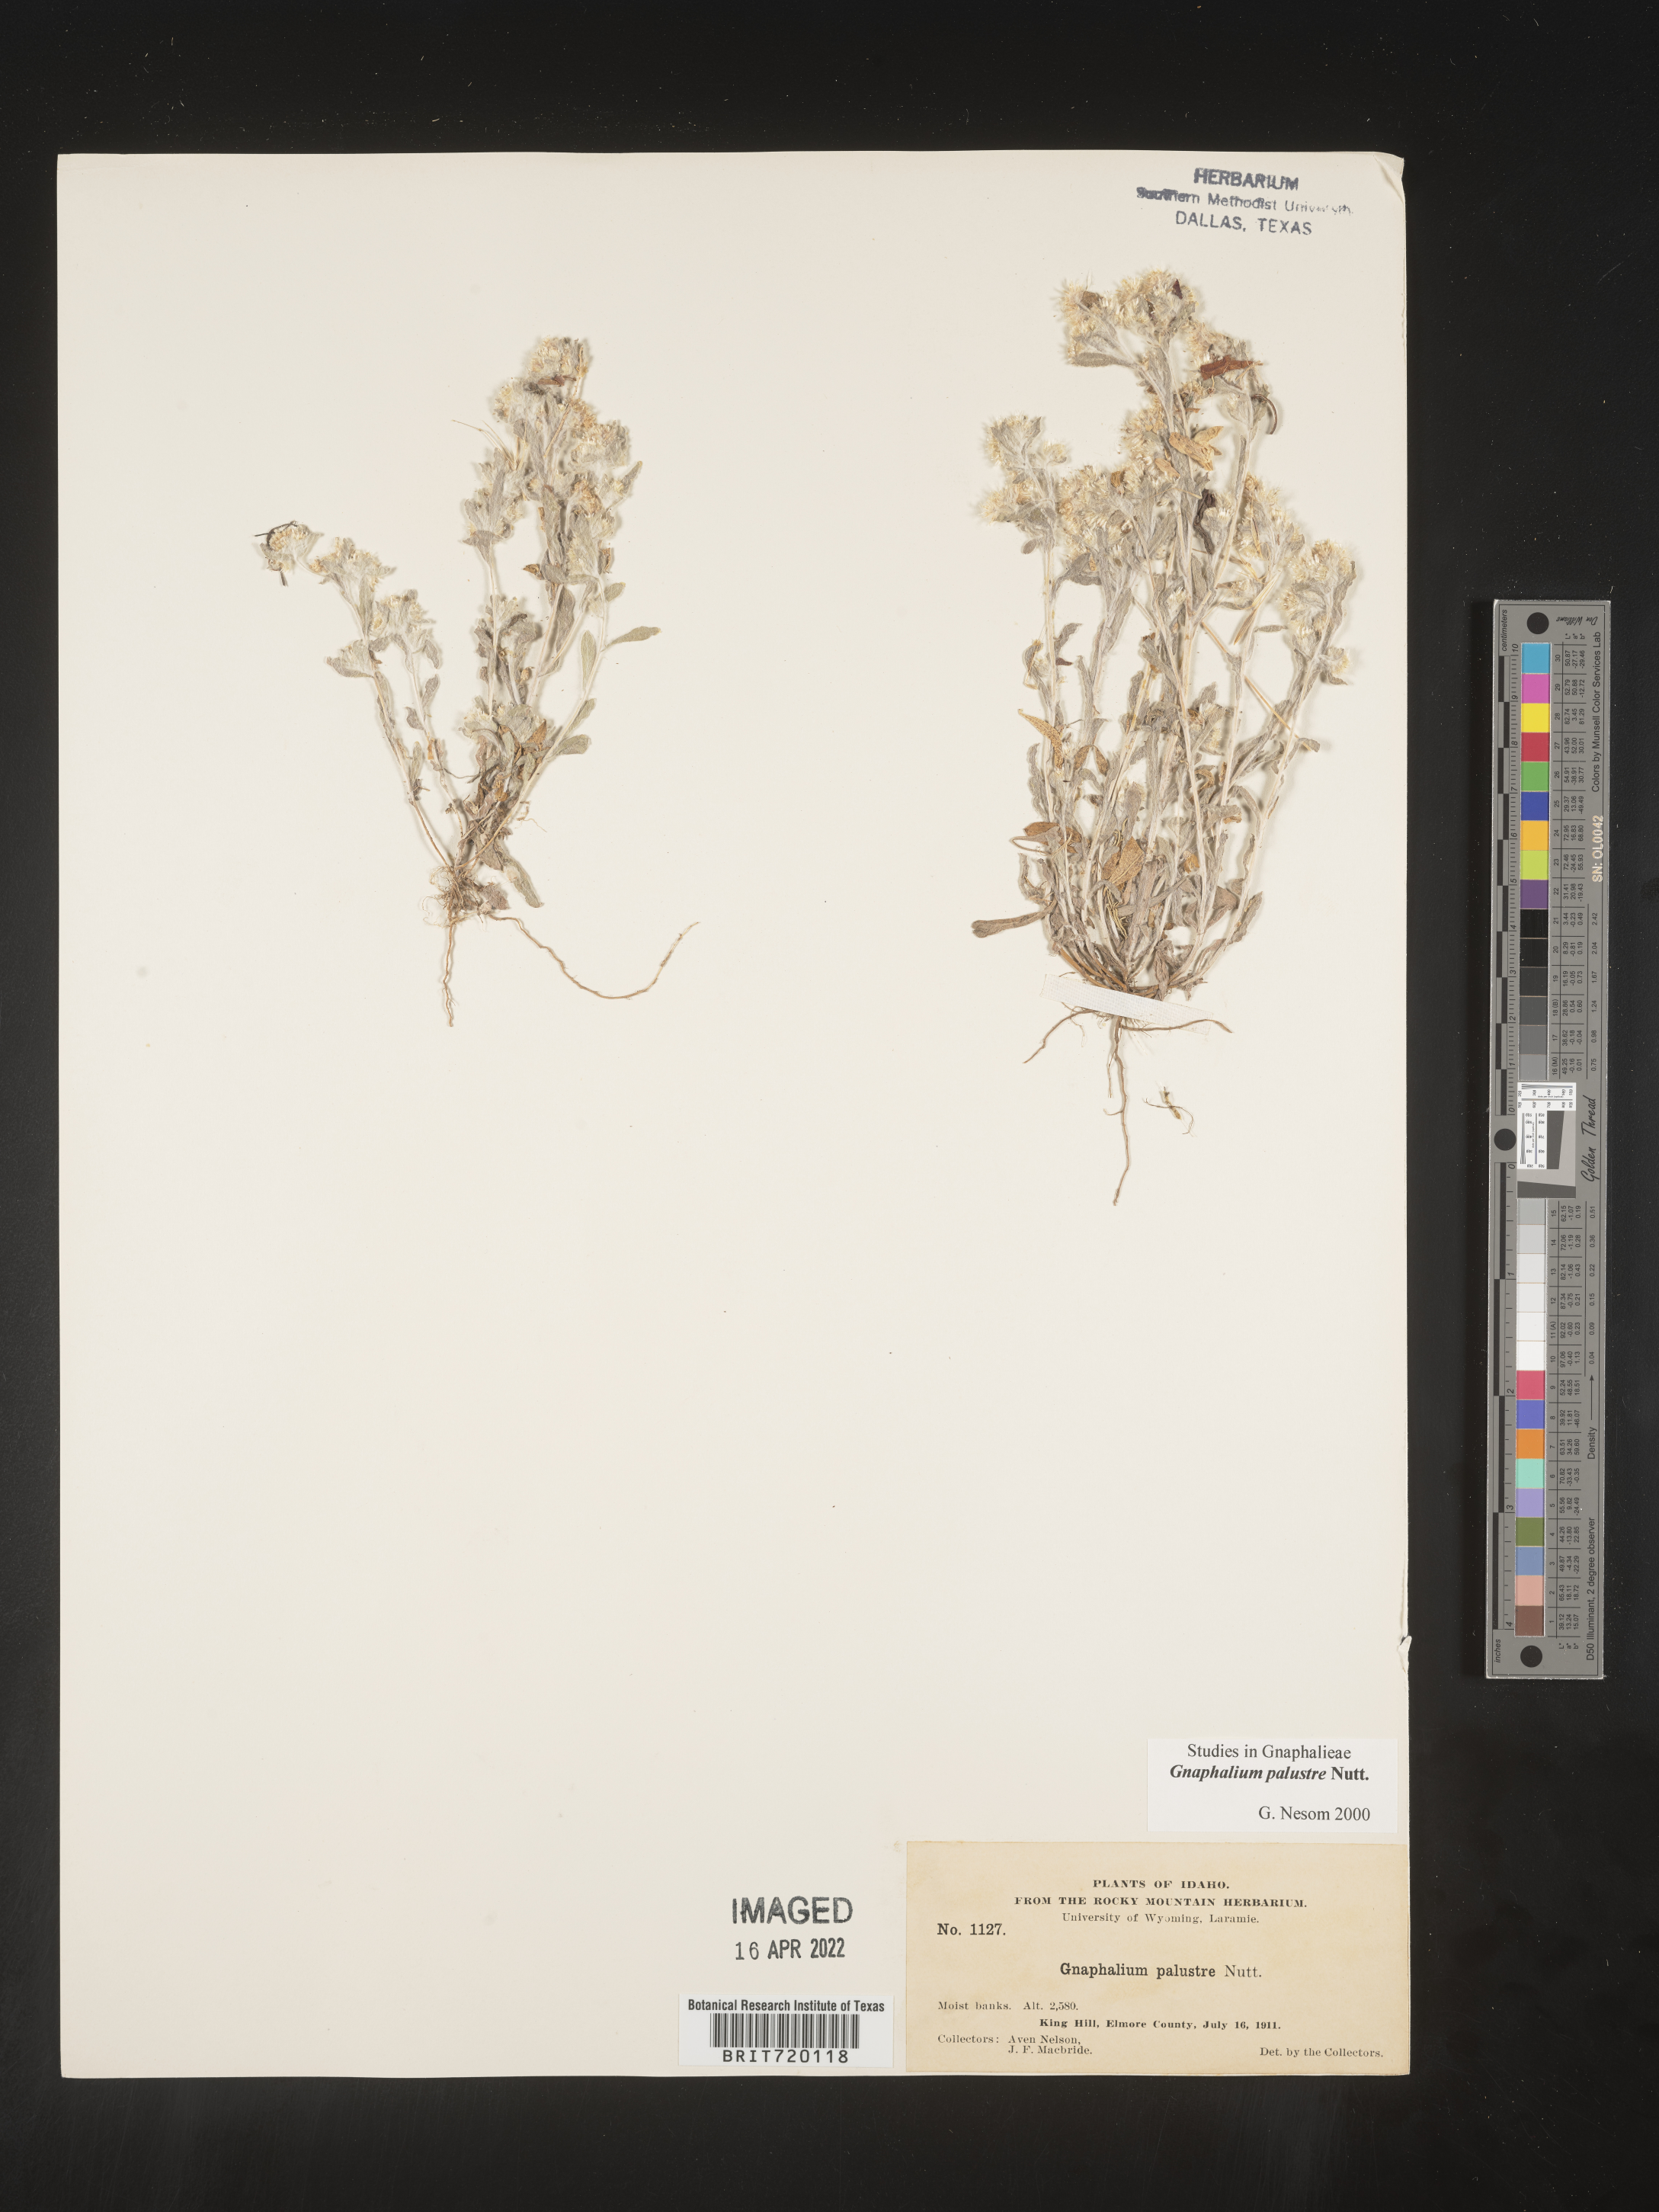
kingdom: Plantae
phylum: Tracheophyta
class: Magnoliopsida
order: Asterales
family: Asteraceae
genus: Gnaphalium
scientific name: Gnaphalium palustre
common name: Western marsh cudweed
